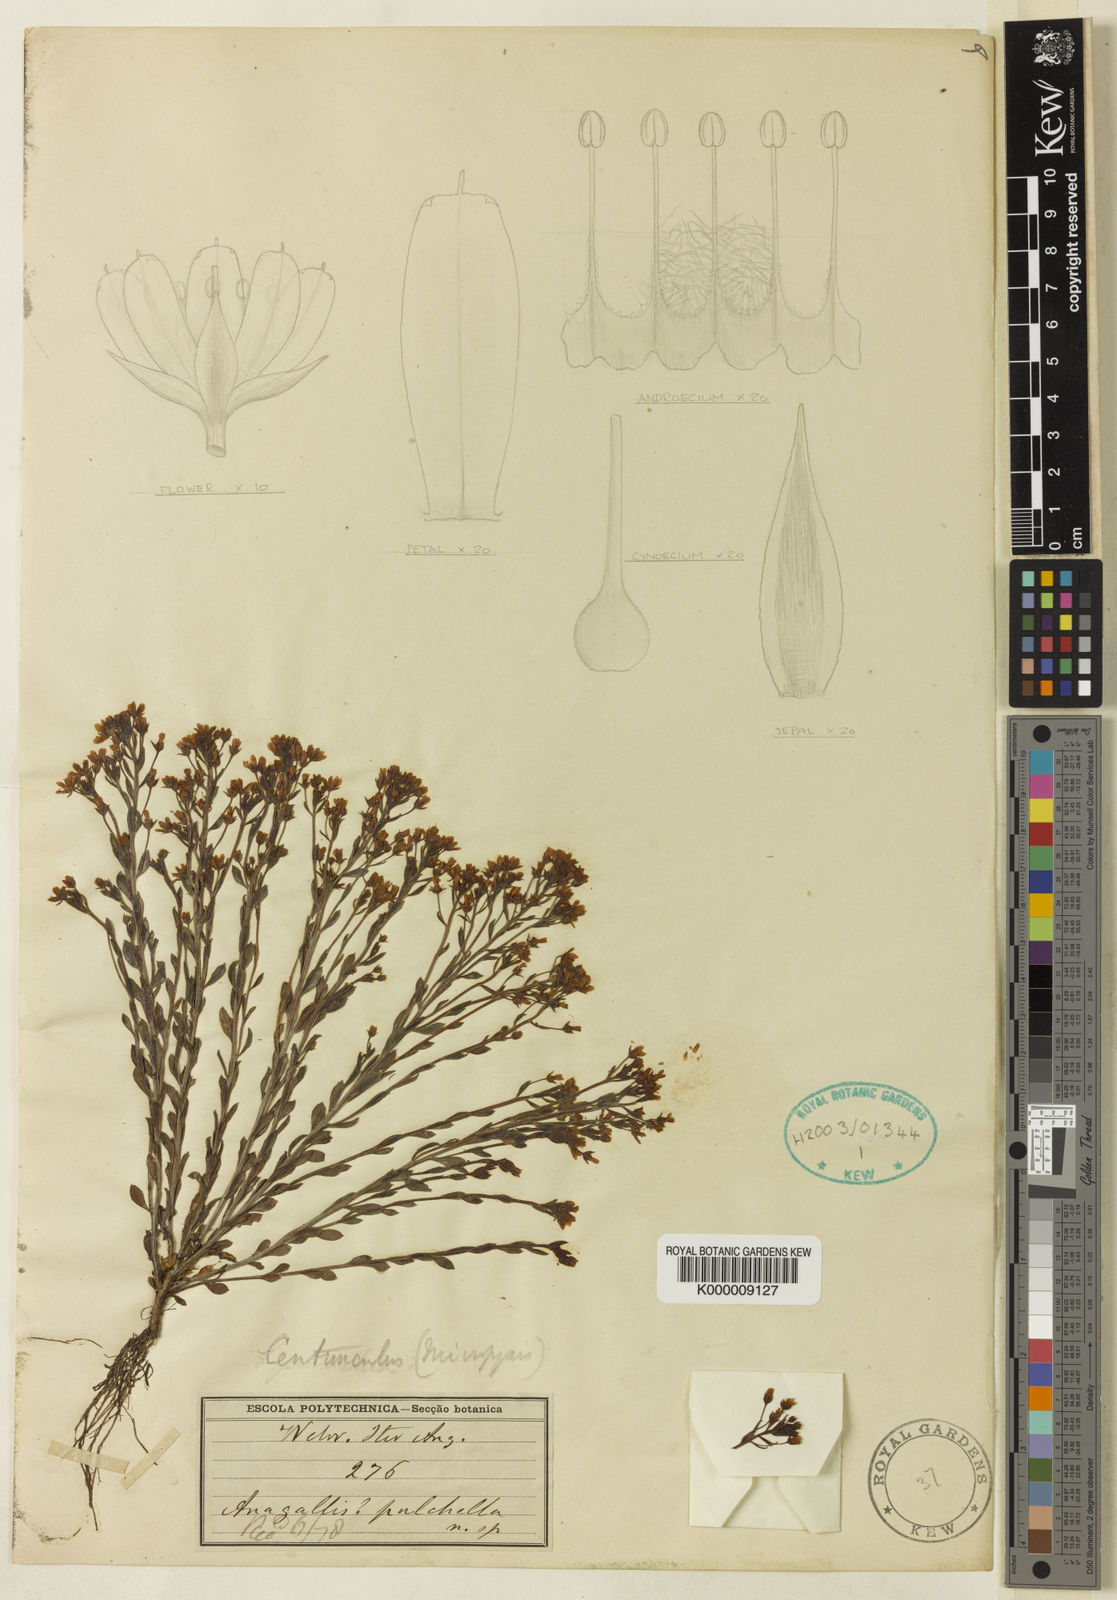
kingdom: Plantae
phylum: Tracheophyta
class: Magnoliopsida
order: Ericales
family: Primulaceae
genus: Lysimachia
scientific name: Lysimachia Anagallis spec
